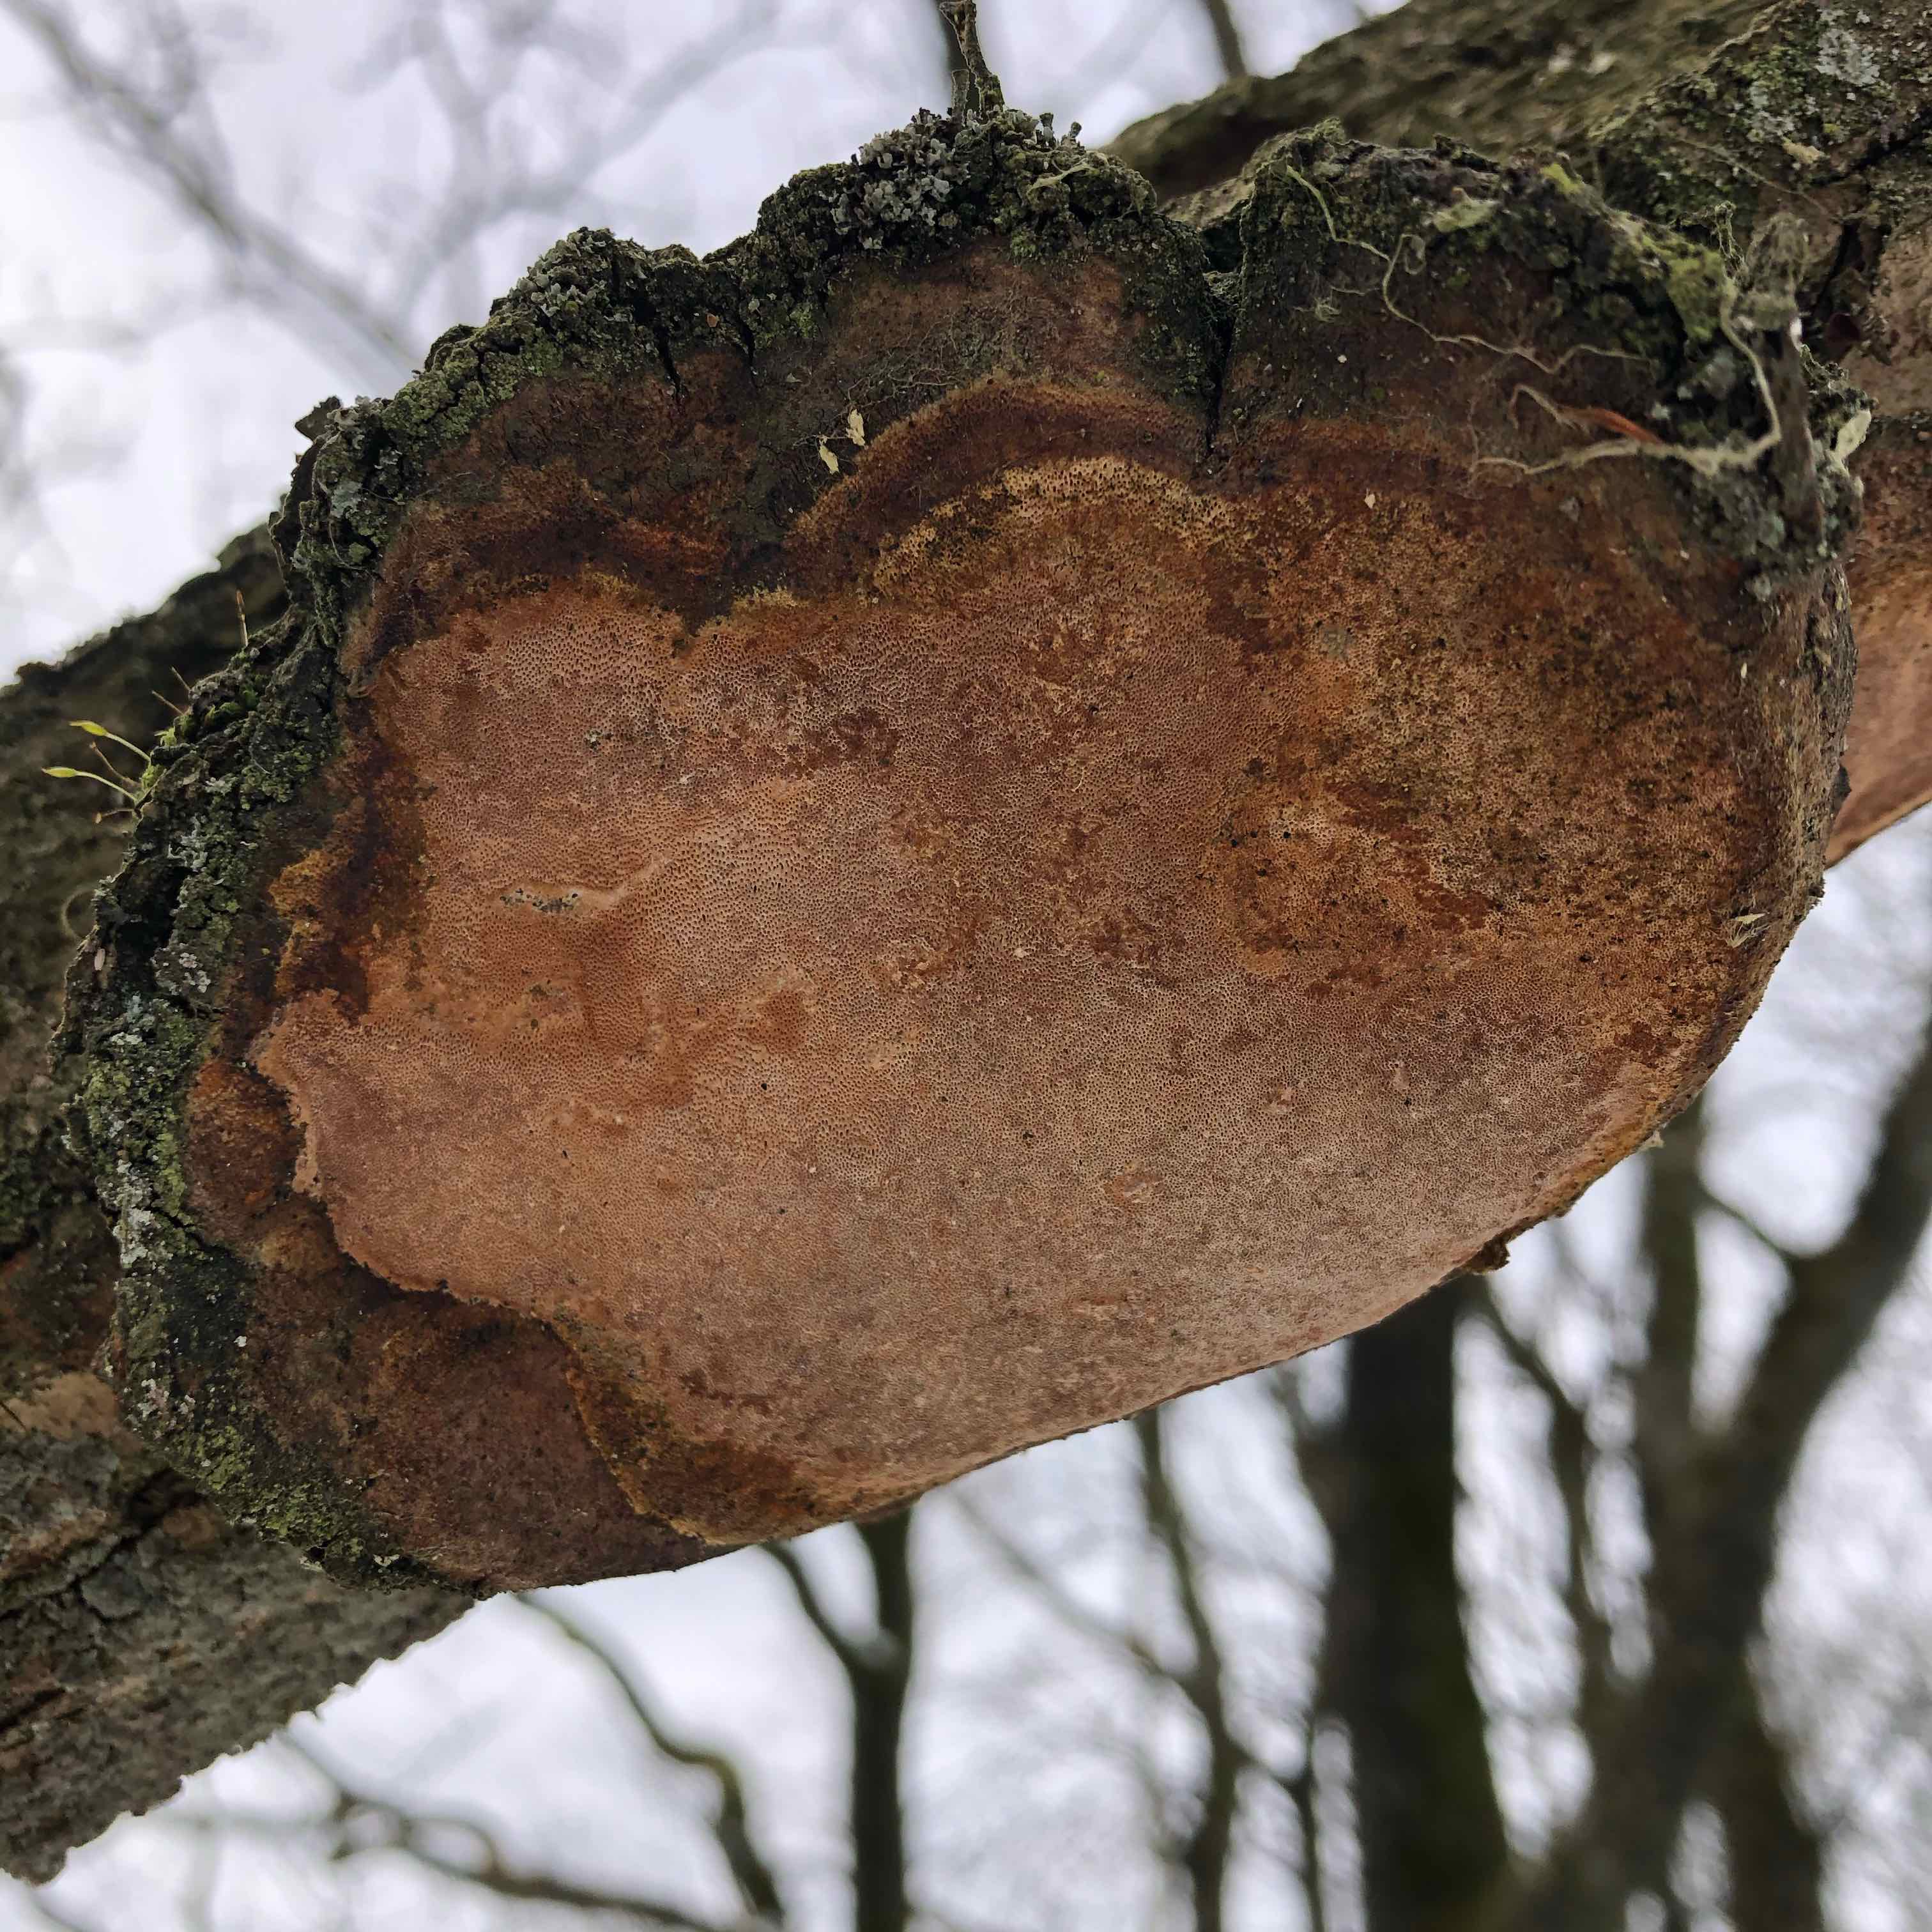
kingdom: Fungi
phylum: Basidiomycota
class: Agaricomycetes
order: Hymenochaetales
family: Hymenochaetaceae
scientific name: Hymenochaetaceae
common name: børstesvampfamilien
